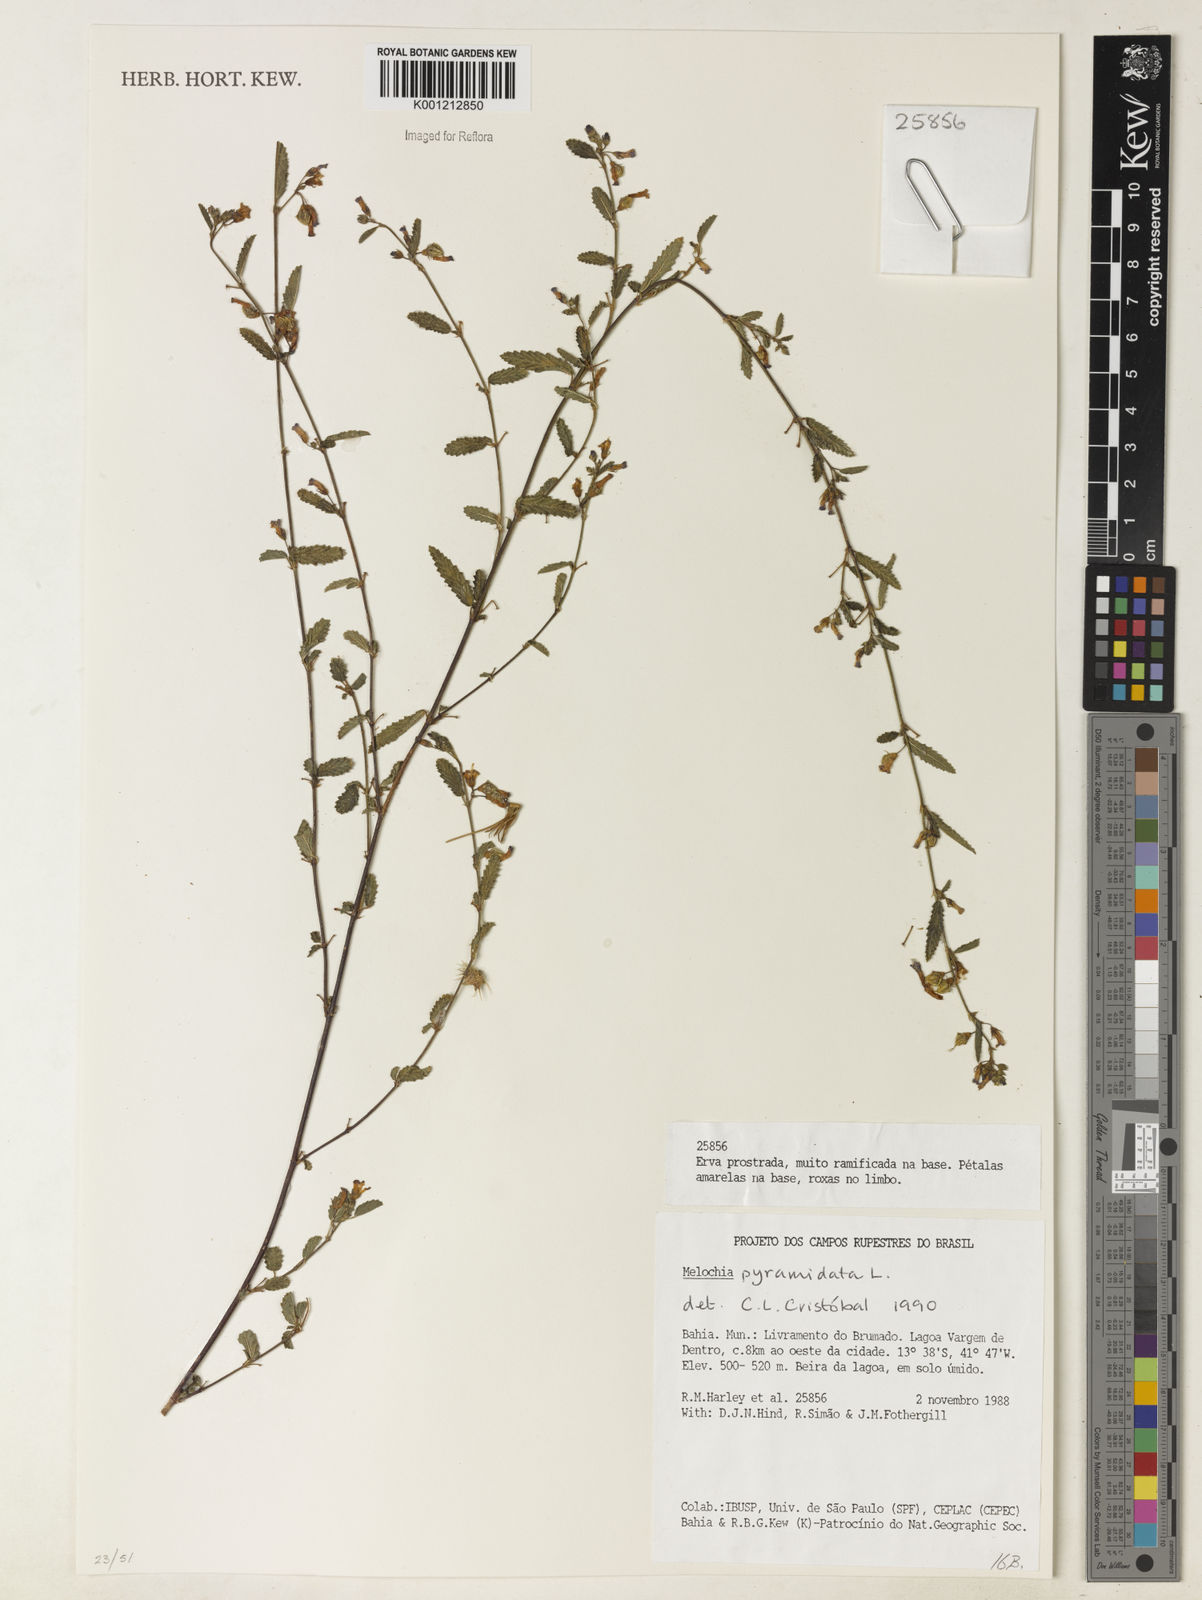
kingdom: Plantae
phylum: Tracheophyta
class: Magnoliopsida
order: Malvales
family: Malvaceae
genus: Melochia
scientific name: Melochia pyramidata
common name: Pyramidflower
